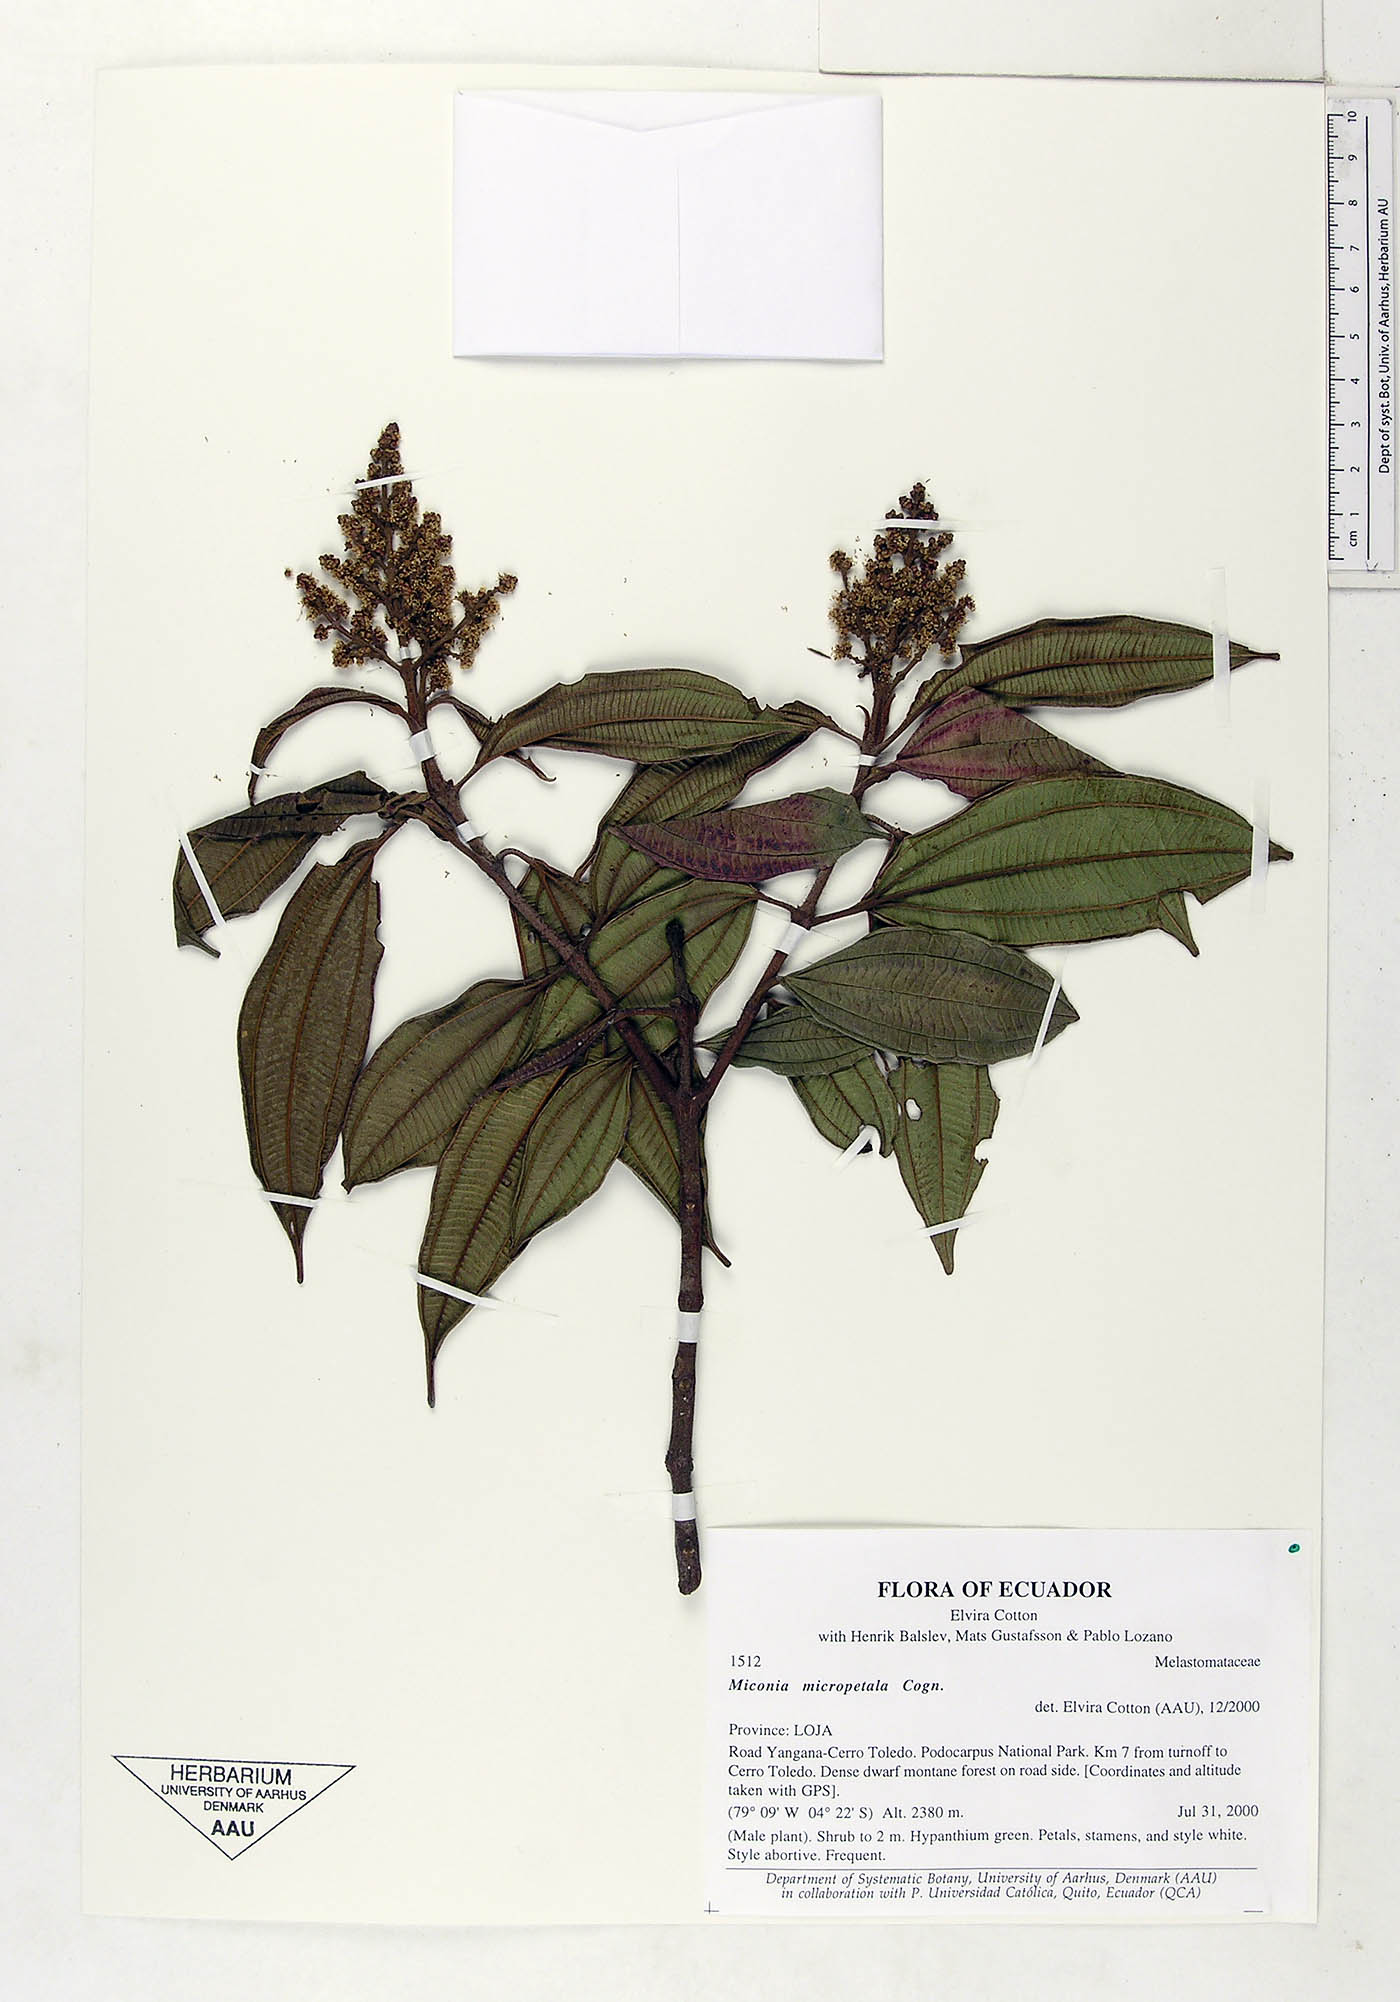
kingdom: Plantae
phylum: Tracheophyta
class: Magnoliopsida
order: Myrtales
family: Melastomataceae
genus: Miconia
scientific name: Miconia micropetala
